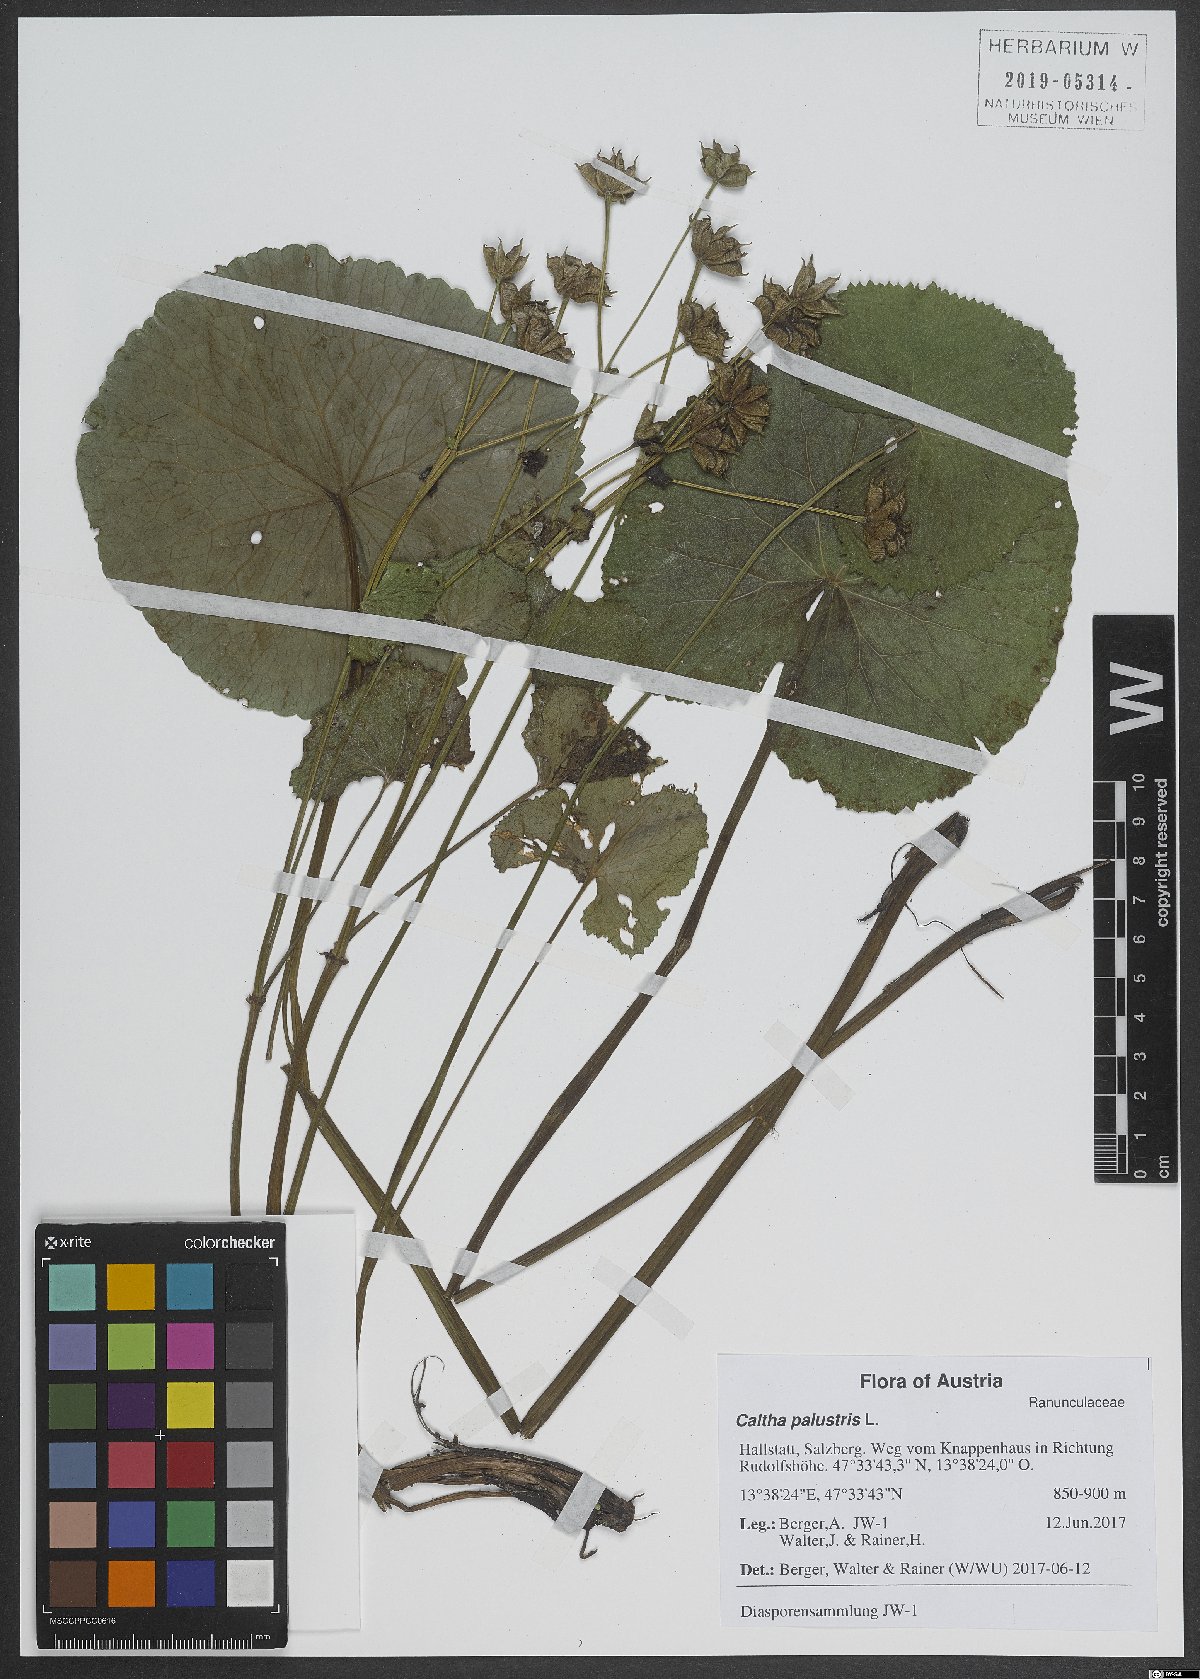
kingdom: Plantae
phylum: Tracheophyta
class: Magnoliopsida
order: Ranunculales
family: Ranunculaceae
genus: Caltha
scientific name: Caltha palustris
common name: Marsh marigold
